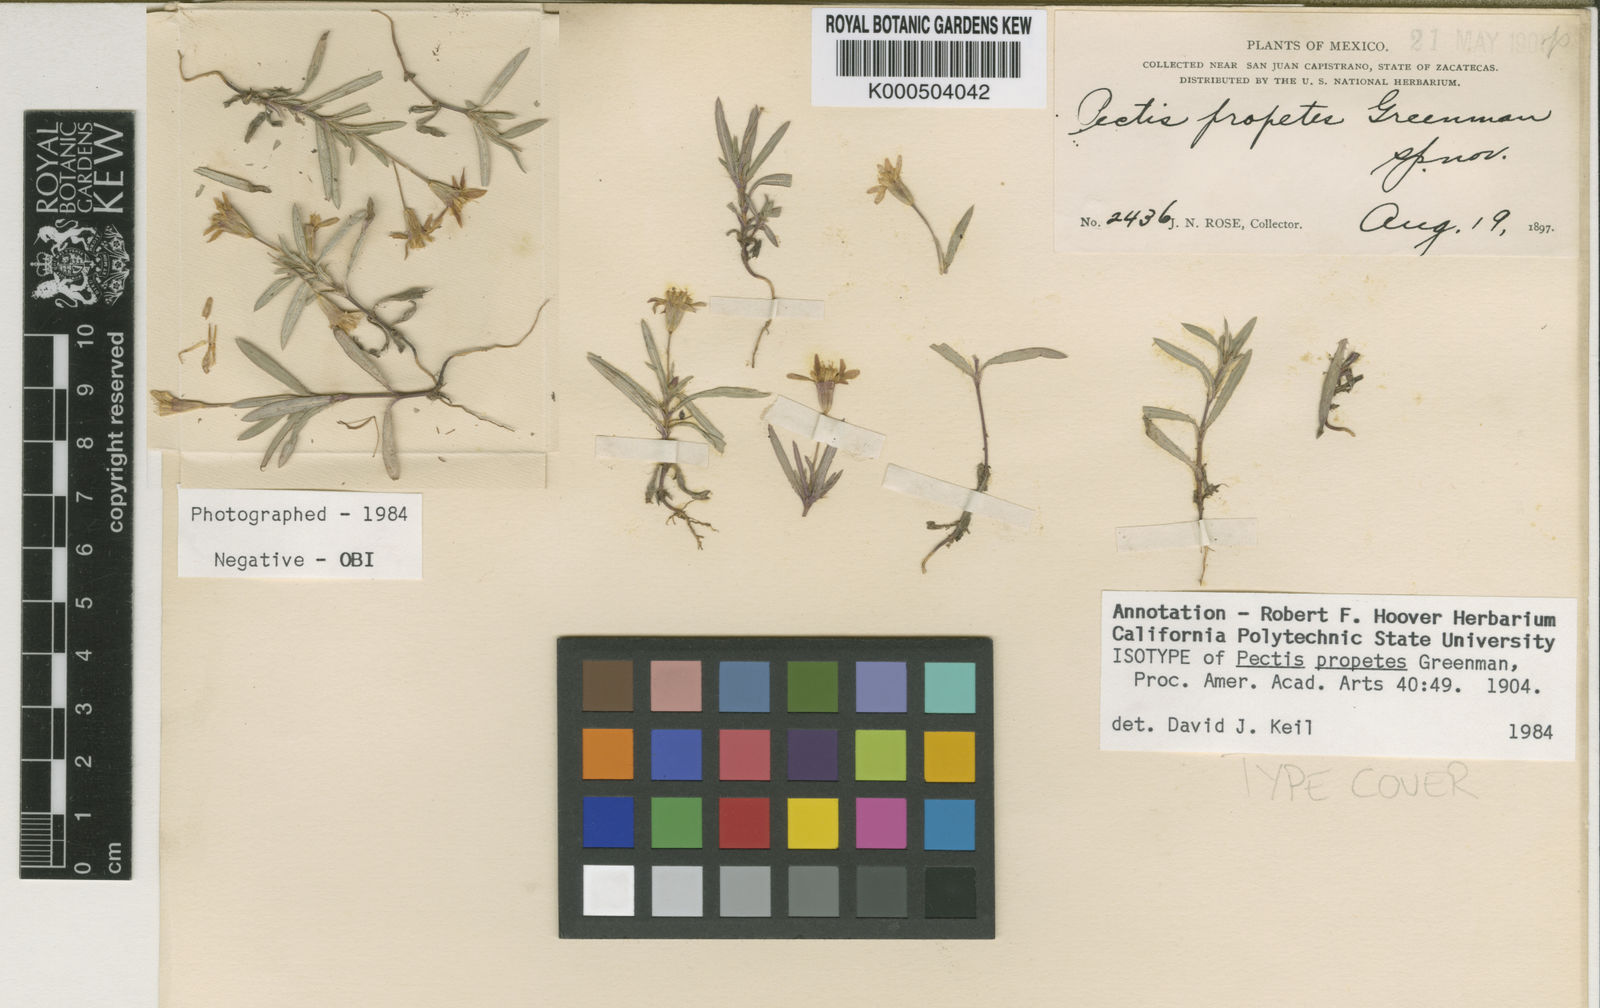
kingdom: Plantae
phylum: Tracheophyta
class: Magnoliopsida
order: Asterales
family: Asteraceae
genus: Pectis
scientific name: Pectis propetes
